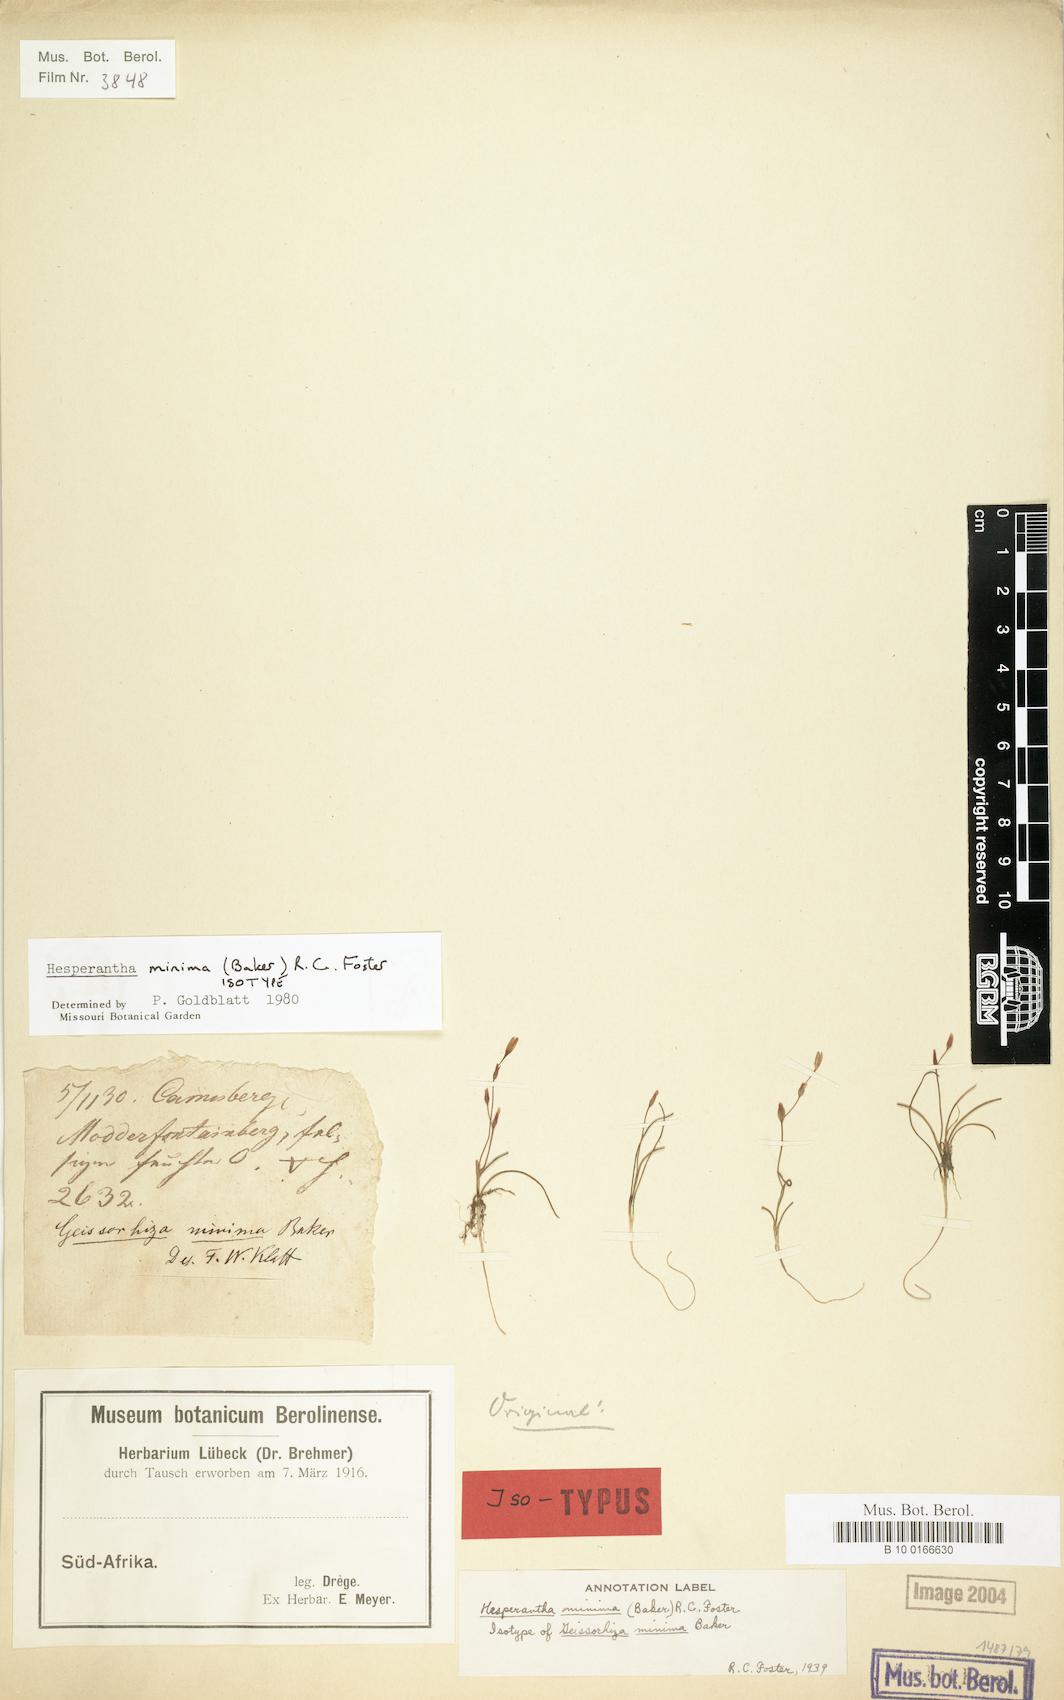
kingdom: Plantae
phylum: Tracheophyta
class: Liliopsida
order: Asparagales
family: Iridaceae
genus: Hesperantha
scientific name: Hesperantha minima
